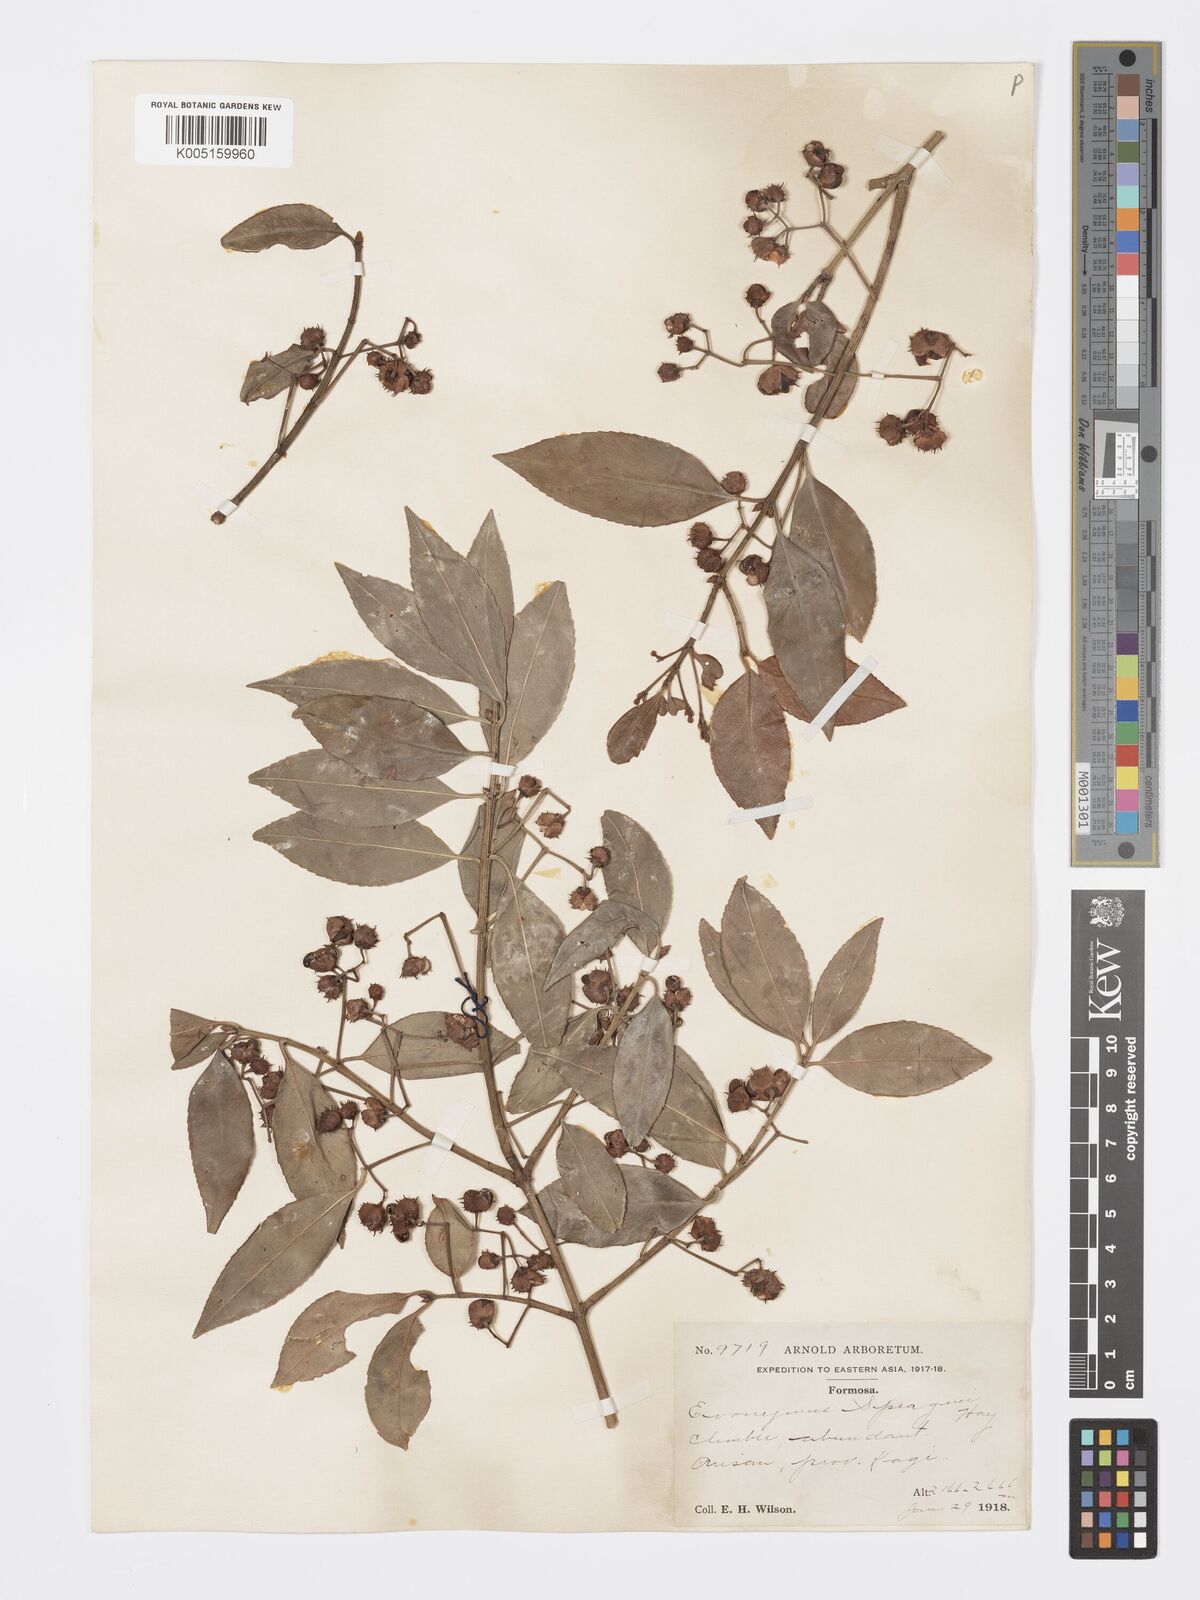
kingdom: Plantae
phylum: Tracheophyta
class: Magnoliopsida
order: Celastrales
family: Celastraceae
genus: Euonymus
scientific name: Euonymus spraguei
